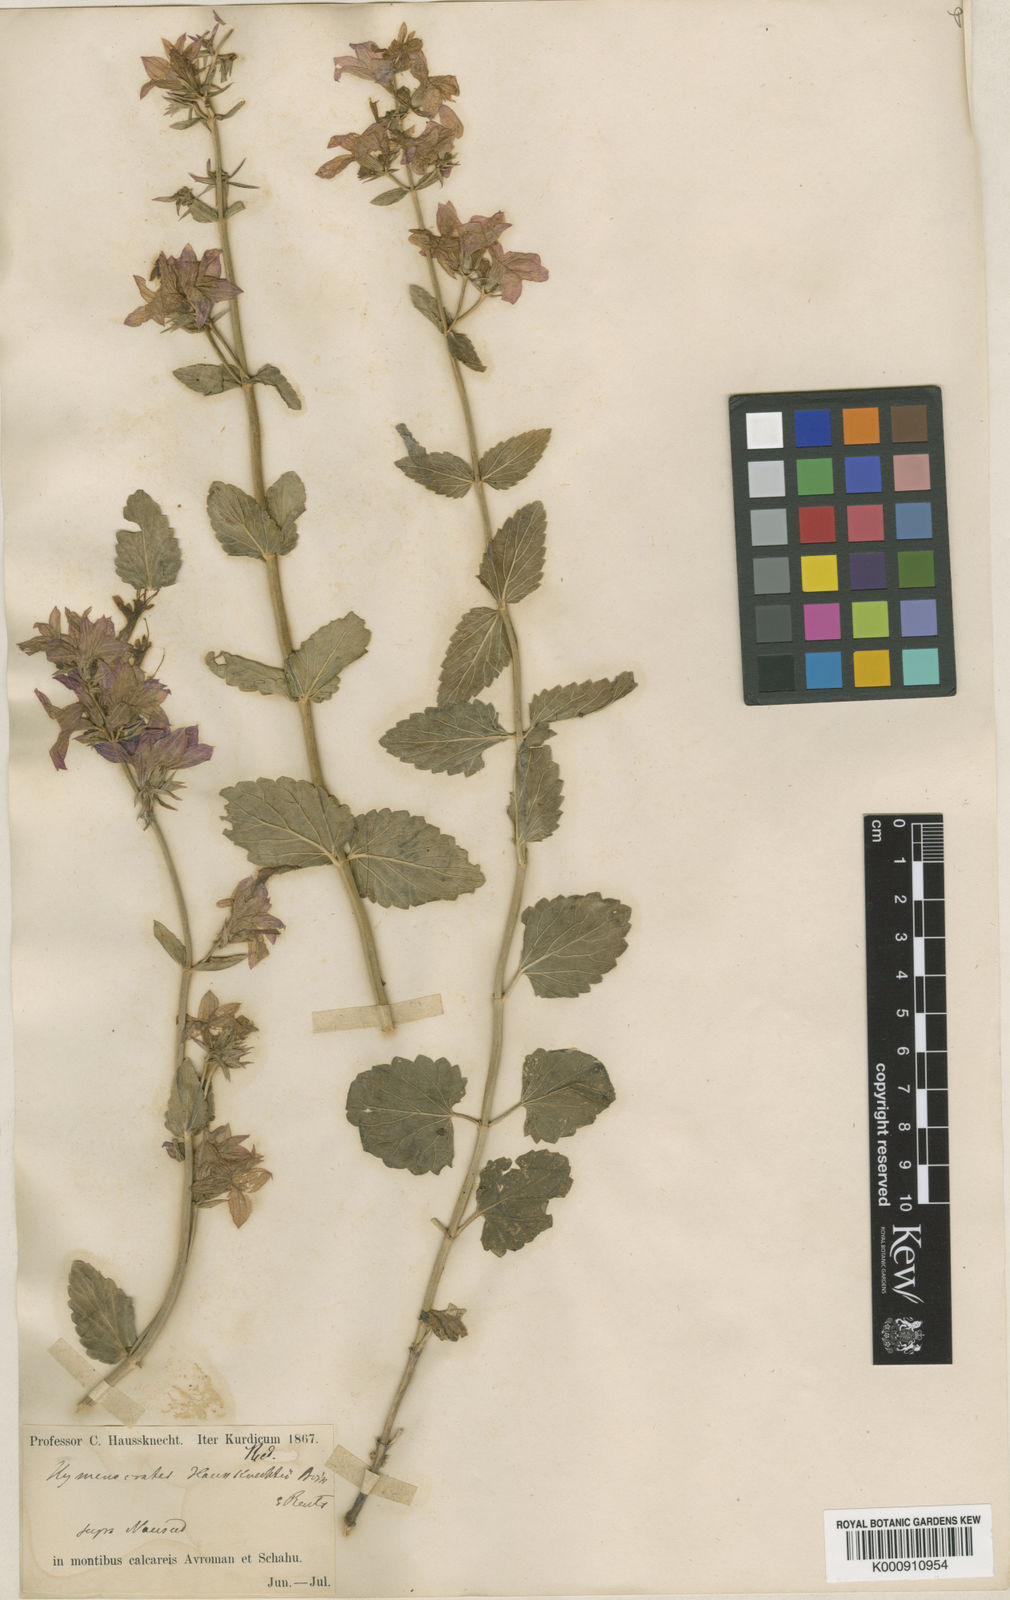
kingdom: Plantae
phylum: Tracheophyta
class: Magnoliopsida
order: Lamiales
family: Lamiaceae
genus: Nepeta
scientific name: Nepeta avromanica
